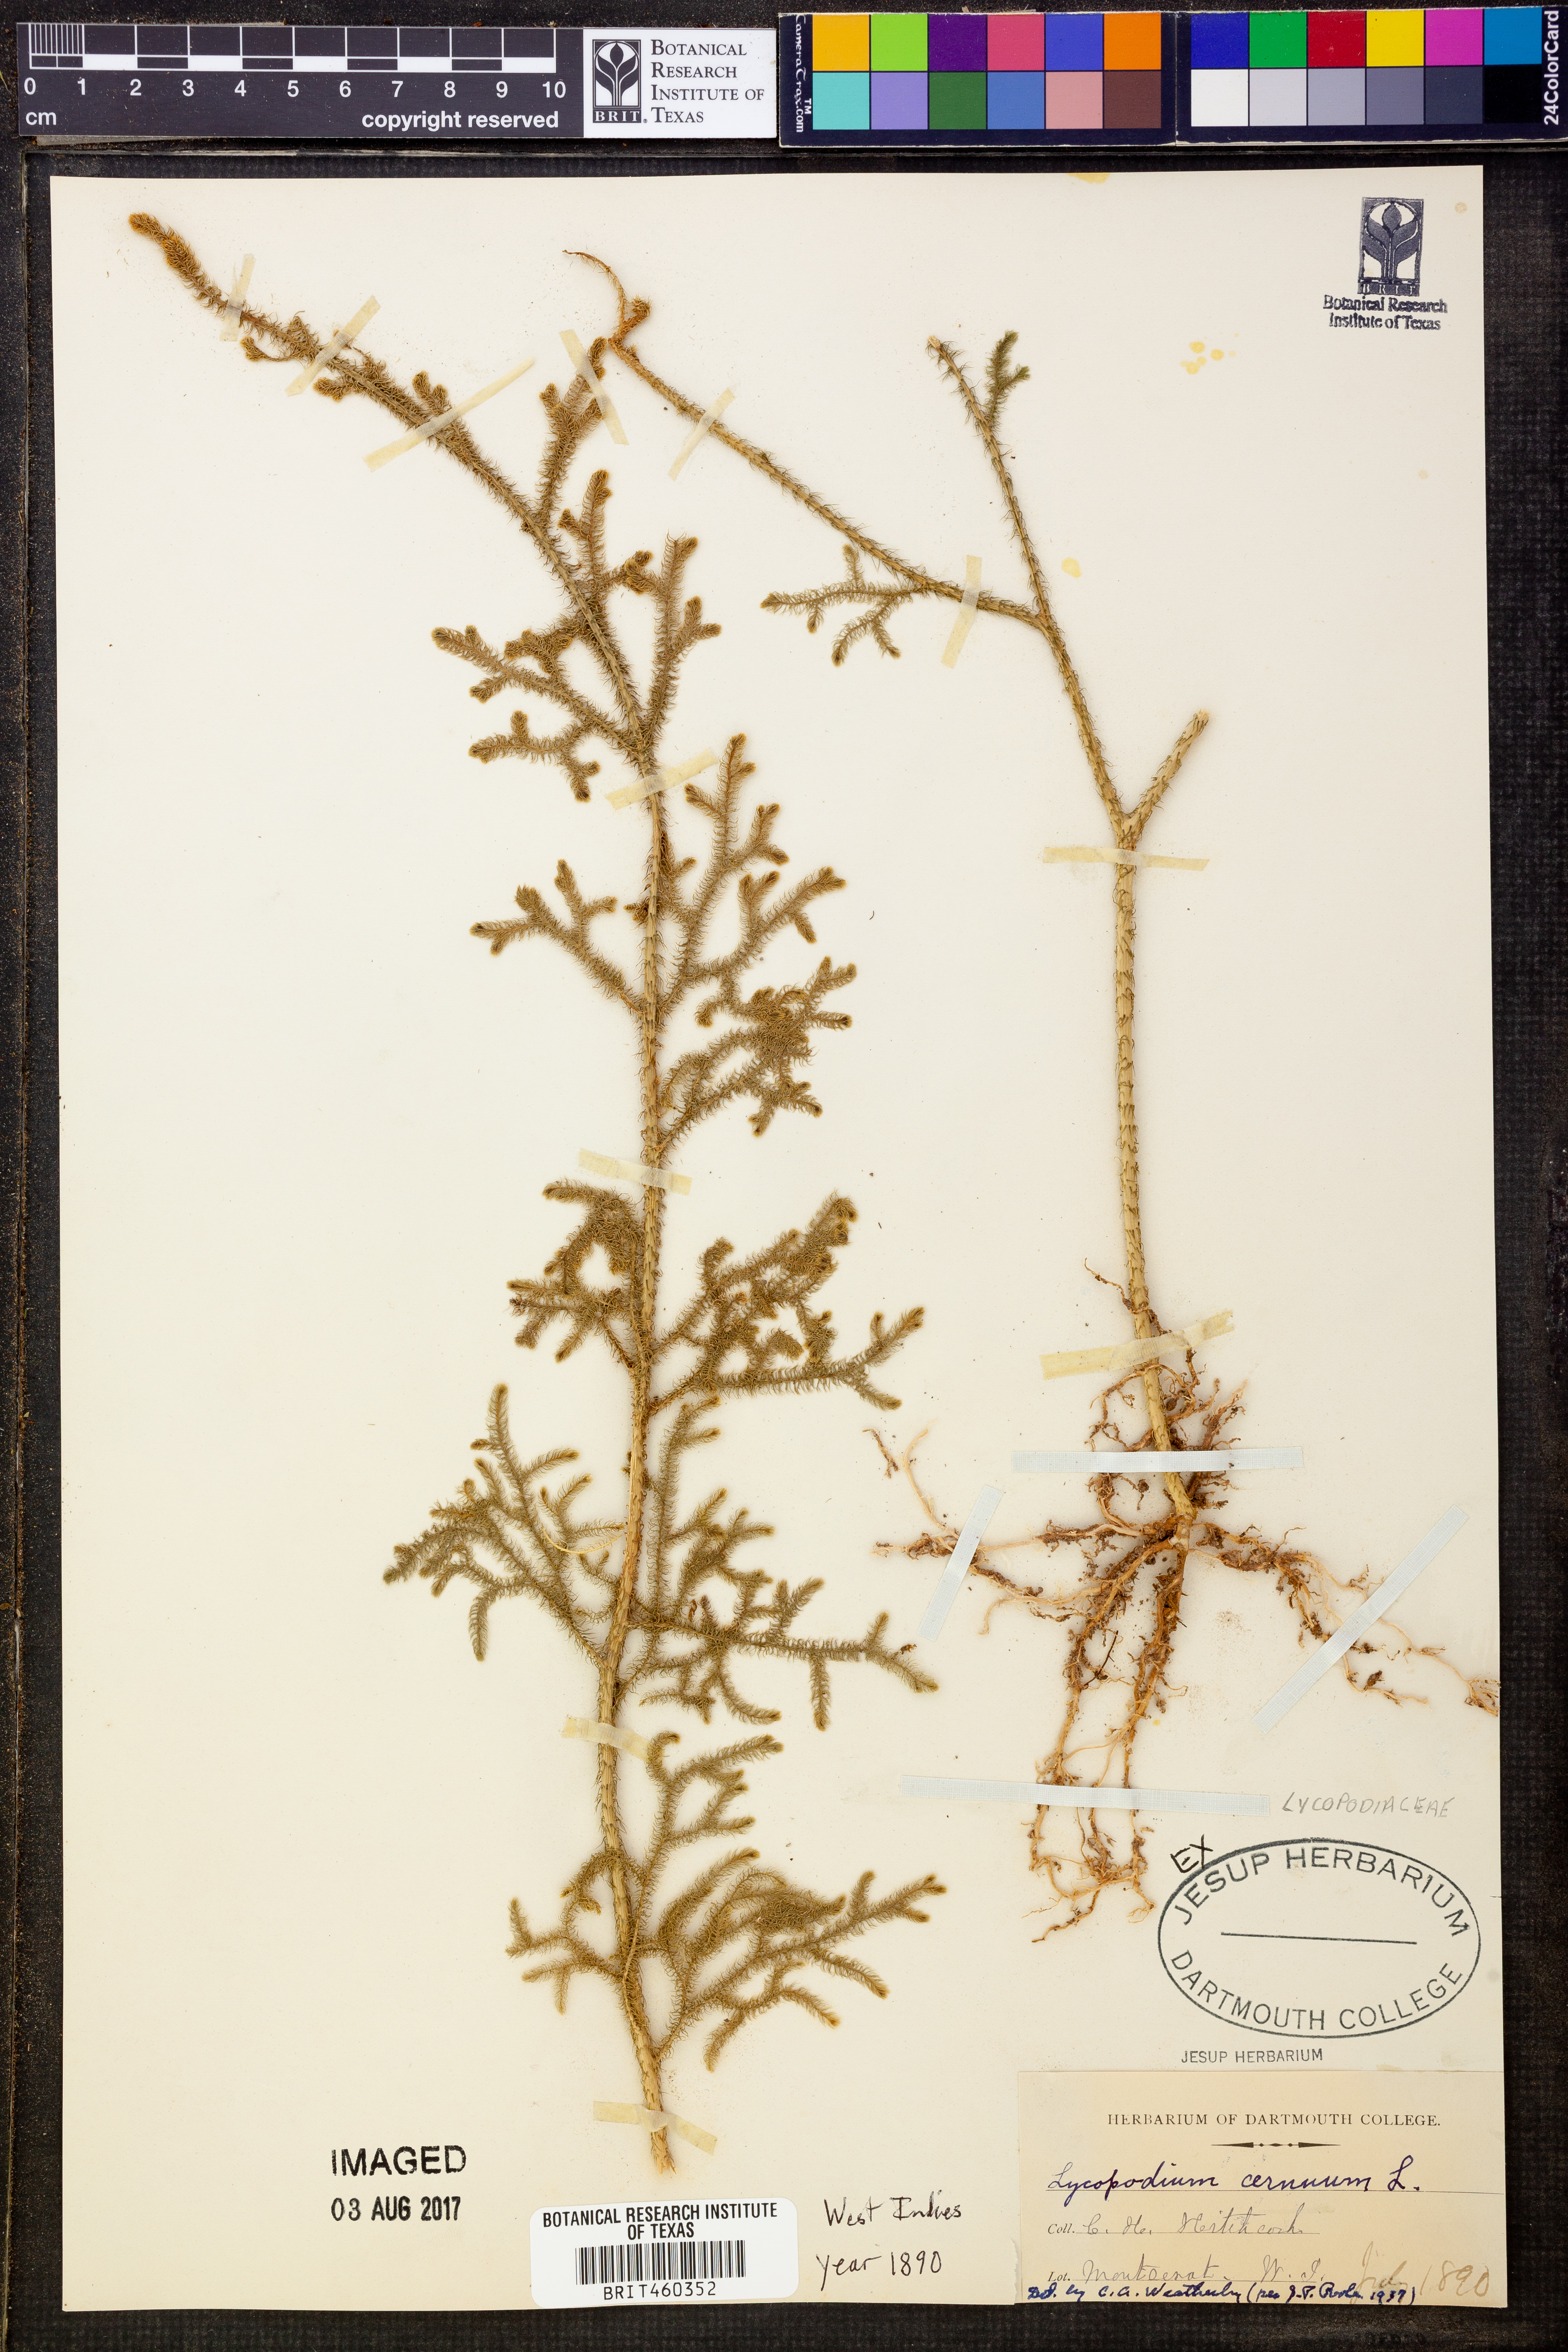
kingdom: Plantae
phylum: Tracheophyta
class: Lycopodiopsida
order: Lycopodiales
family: Lycopodiaceae
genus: Palhinhaea
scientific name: Palhinhaea cernua
